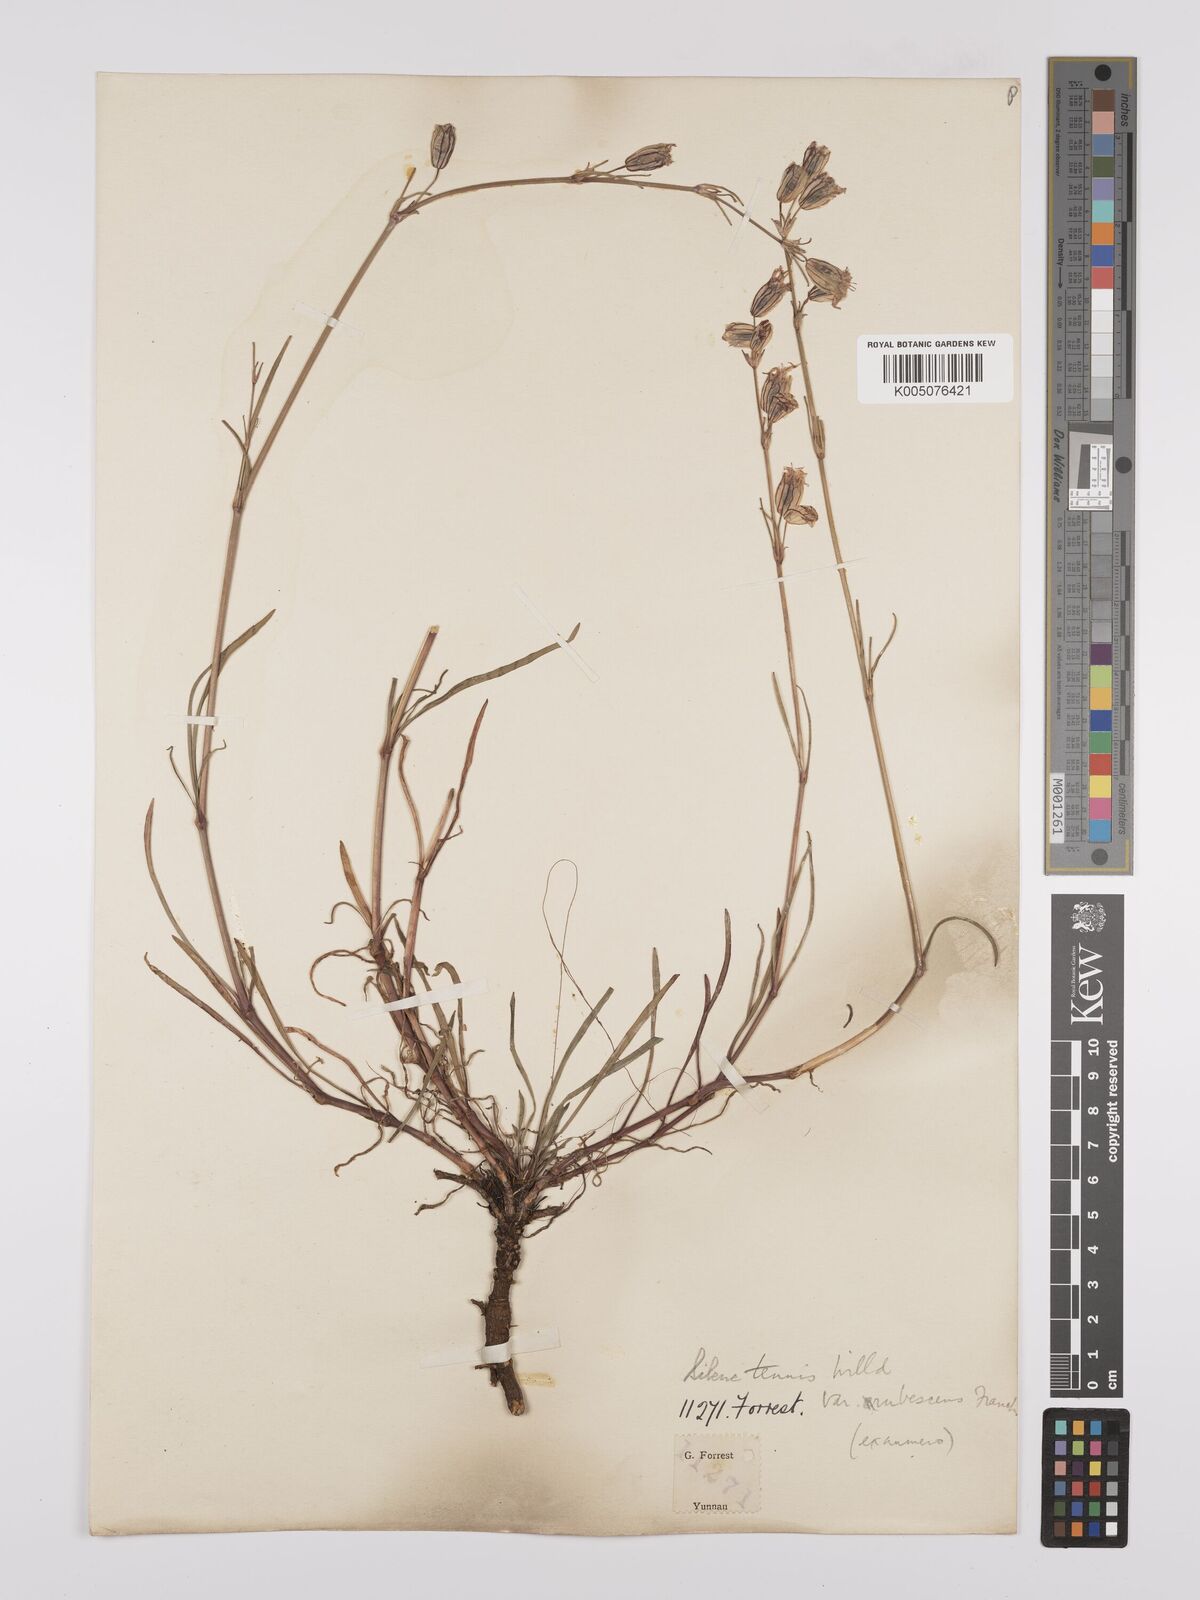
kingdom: Plantae
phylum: Tracheophyta
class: Magnoliopsida
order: Caryophyllales
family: Caryophyllaceae
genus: Silene
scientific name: Silene
